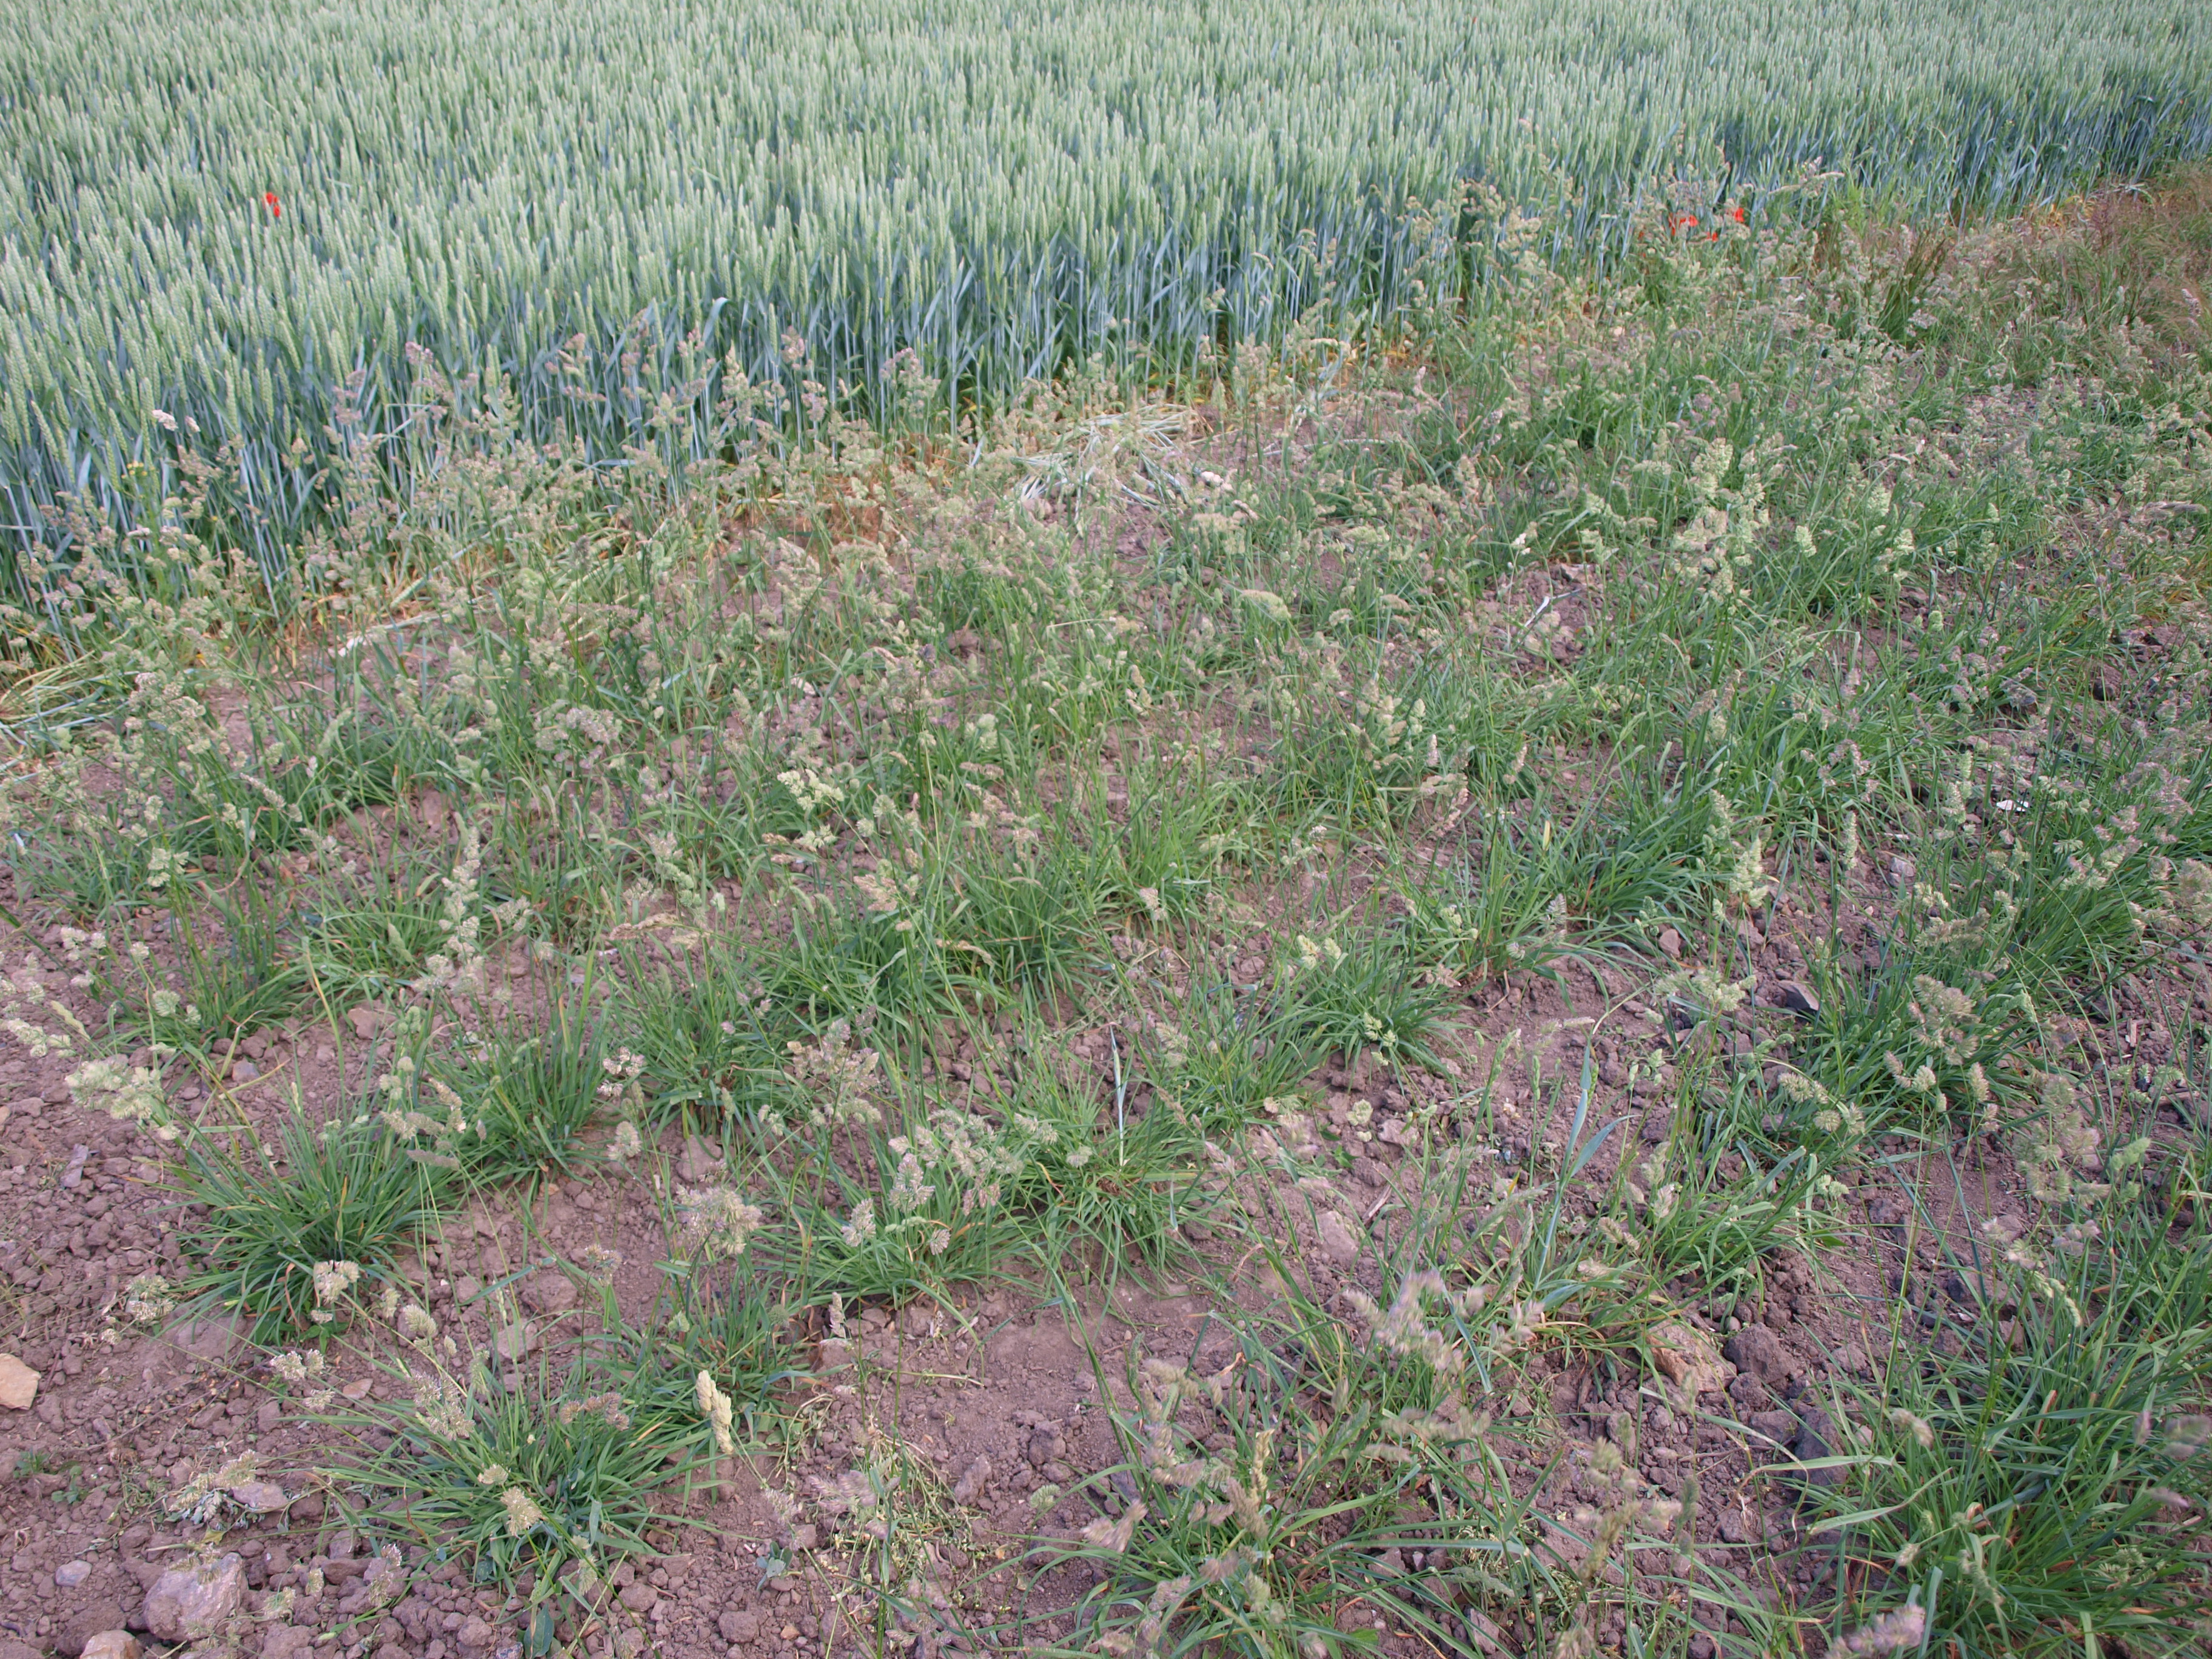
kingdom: Plantae
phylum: Tracheophyta
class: Liliopsida
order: Poales
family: Poaceae
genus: Dactylis
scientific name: Dactylis glomerata
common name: Orchardgrass
